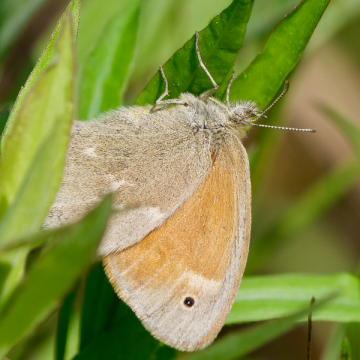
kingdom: Animalia
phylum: Arthropoda
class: Insecta
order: Lepidoptera
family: Nymphalidae
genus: Coenonympha
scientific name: Coenonympha california
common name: California Ringlet
